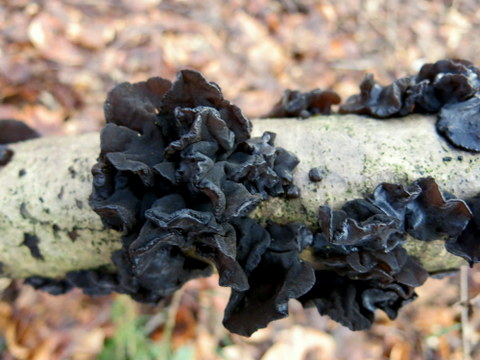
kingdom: Fungi
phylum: Basidiomycota
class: Agaricomycetes
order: Auriculariales
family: Auriculariaceae
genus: Exidia
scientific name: Exidia glandulosa
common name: ege-bævretop
